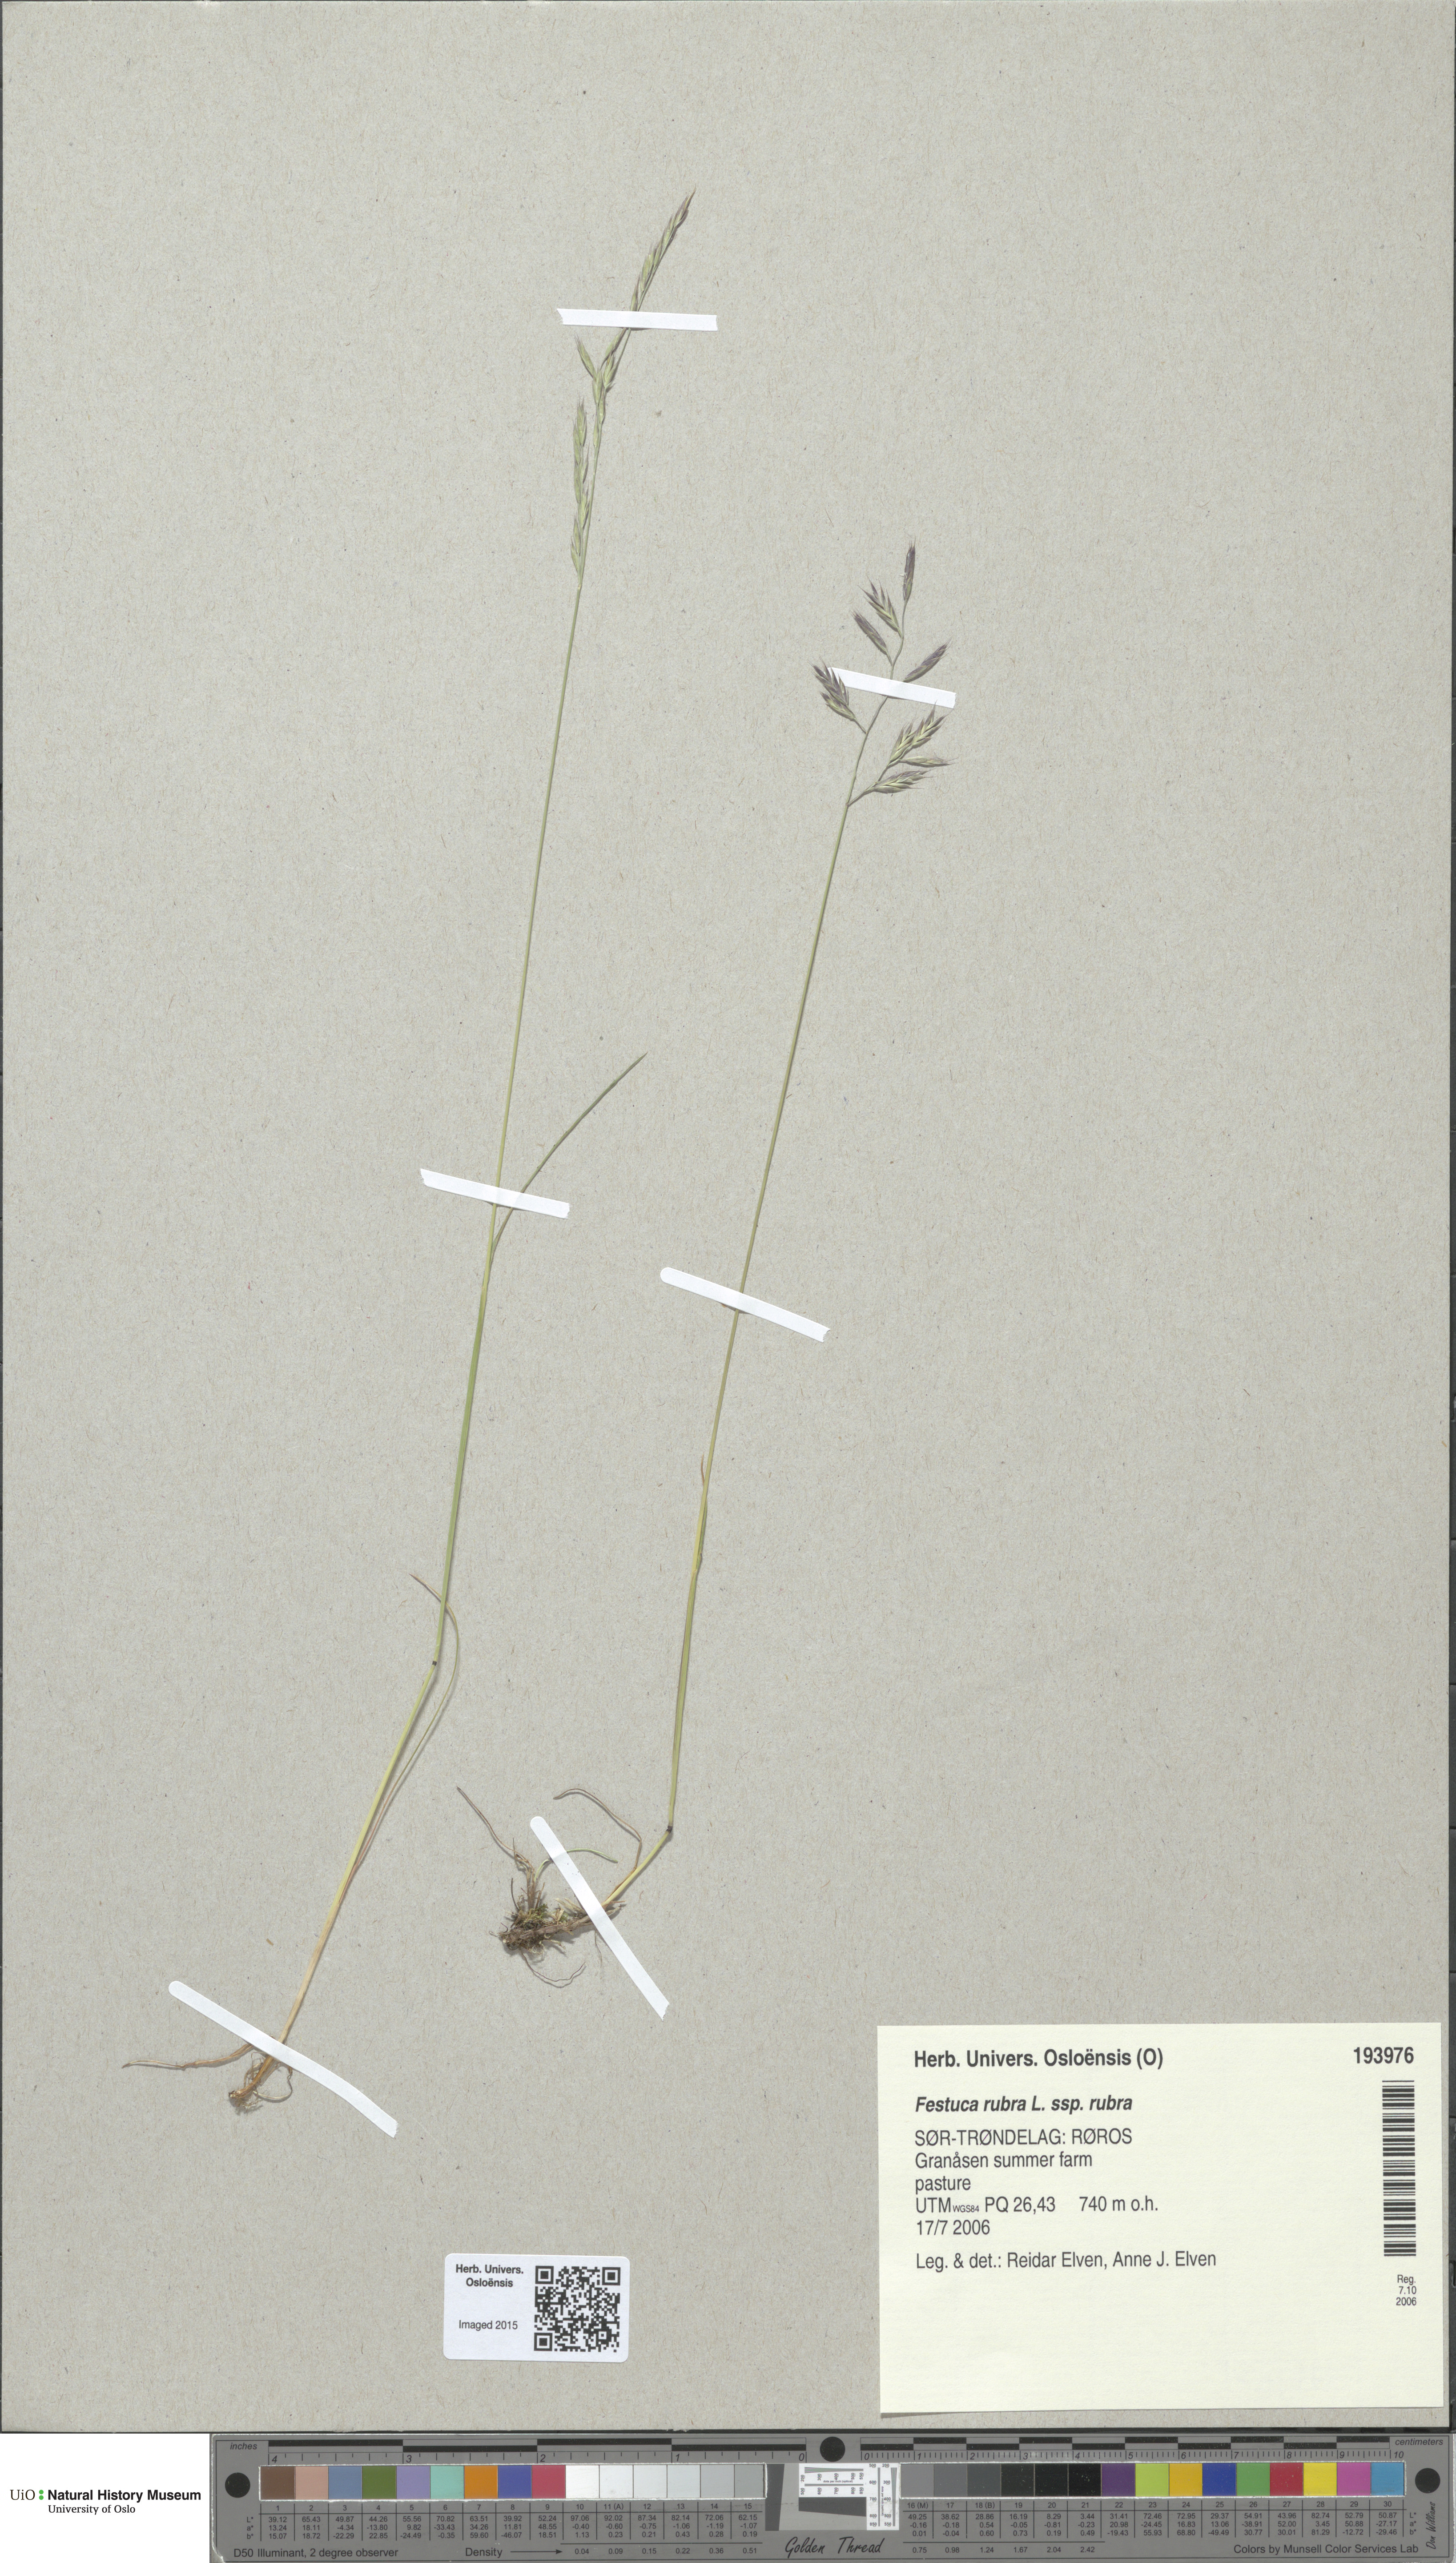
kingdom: Plantae
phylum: Tracheophyta
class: Liliopsida
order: Poales
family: Poaceae
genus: Festuca
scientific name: Festuca rubra
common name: Red fescue
